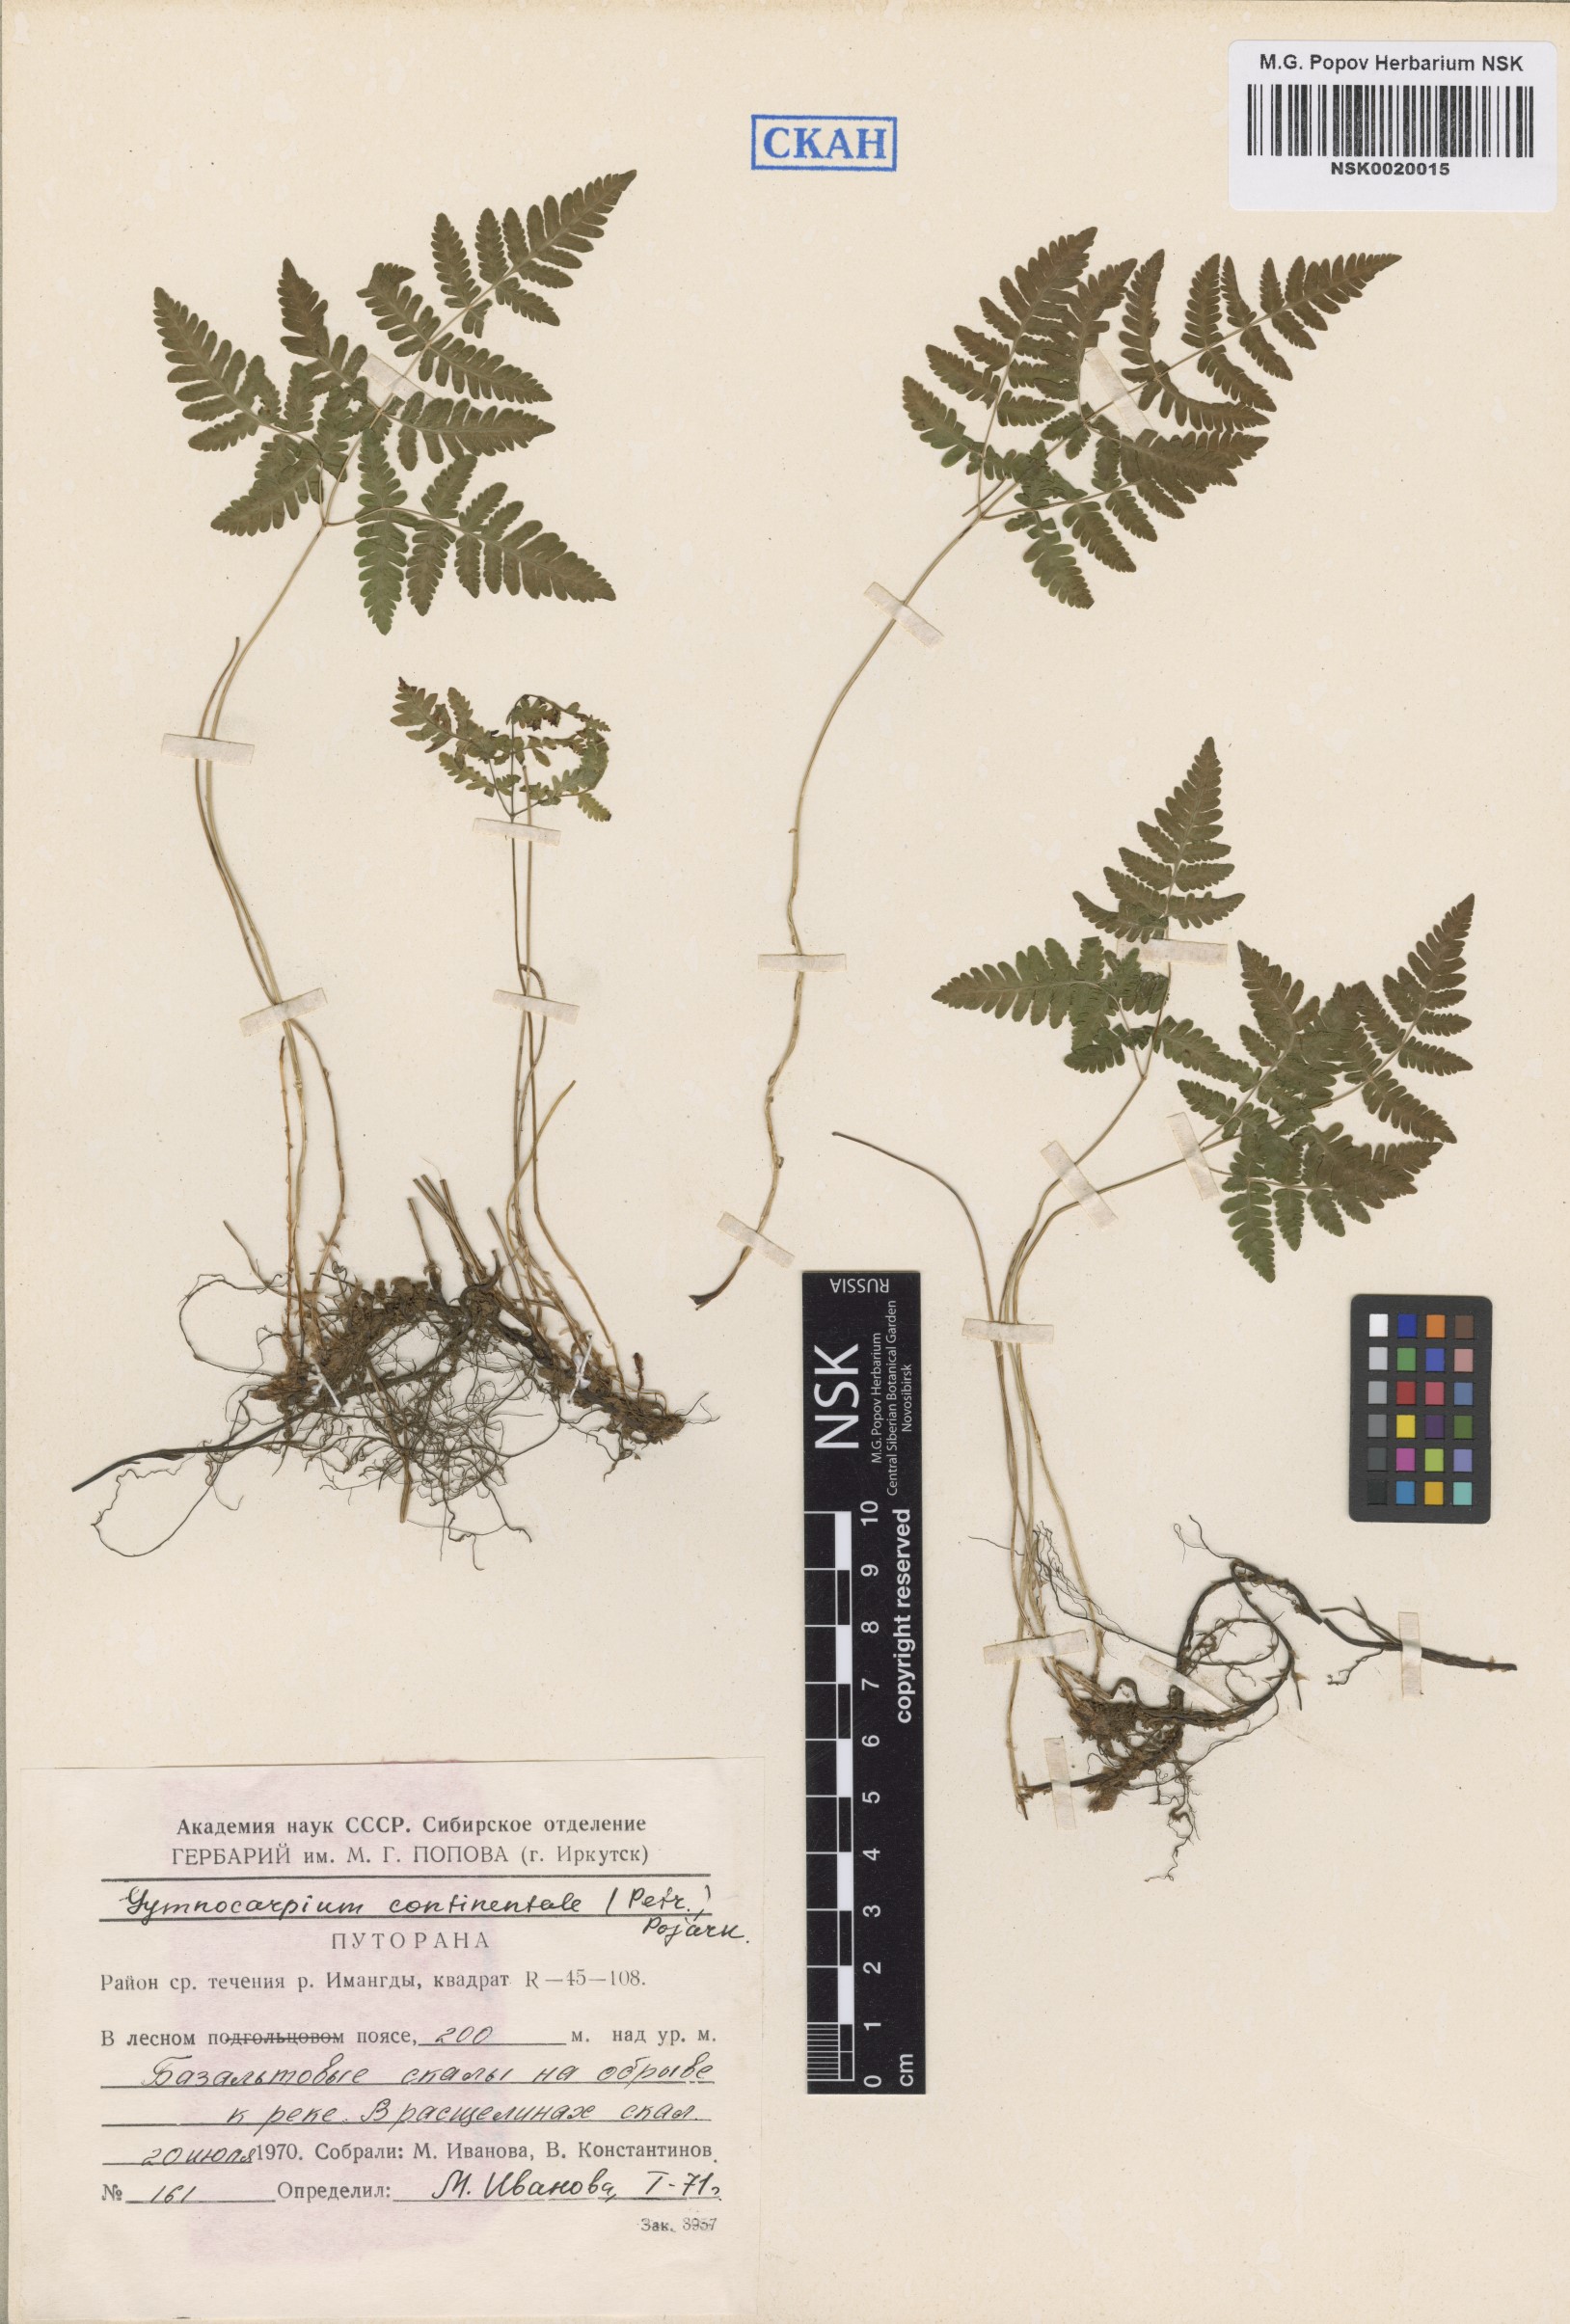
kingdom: Plantae
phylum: Tracheophyta
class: Polypodiopsida
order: Polypodiales
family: Cystopteridaceae
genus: Gymnocarpium
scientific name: Gymnocarpium continentale
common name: Asian oak fern
